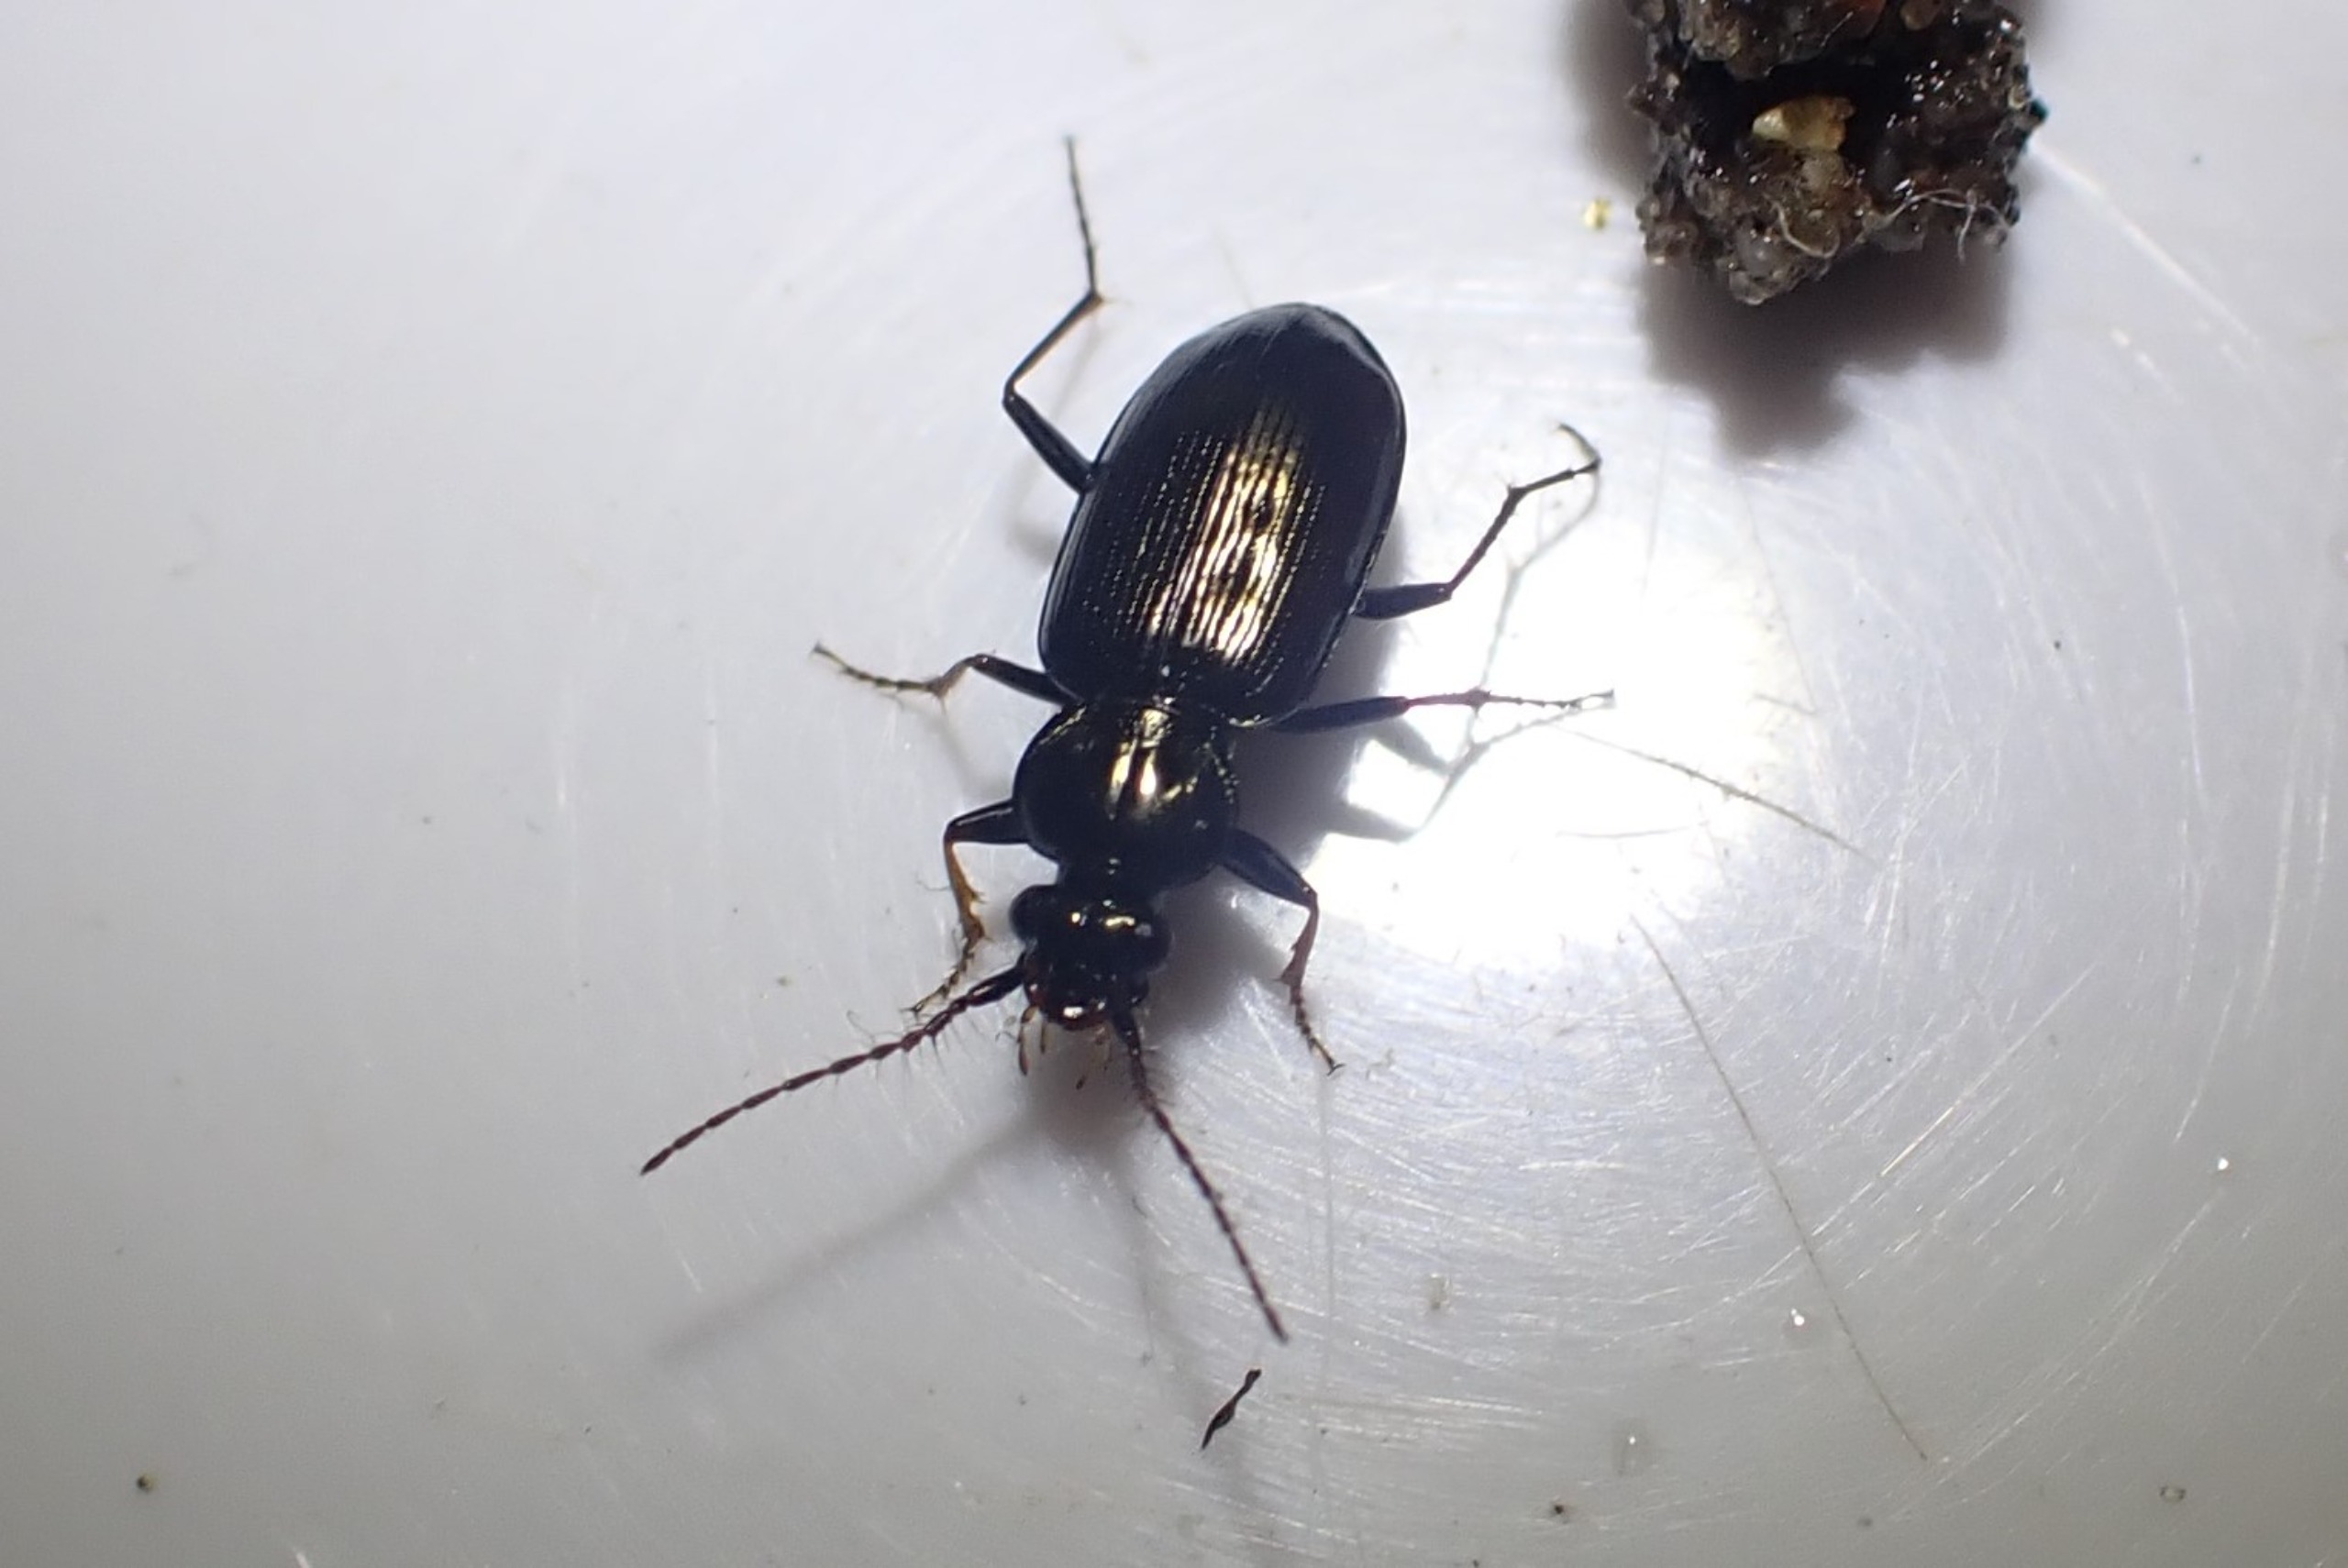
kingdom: Animalia
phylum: Arthropoda
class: Insecta
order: Coleoptera
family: Carabidae
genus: Loricera
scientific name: Loricera pilicornis
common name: Børsteløber
